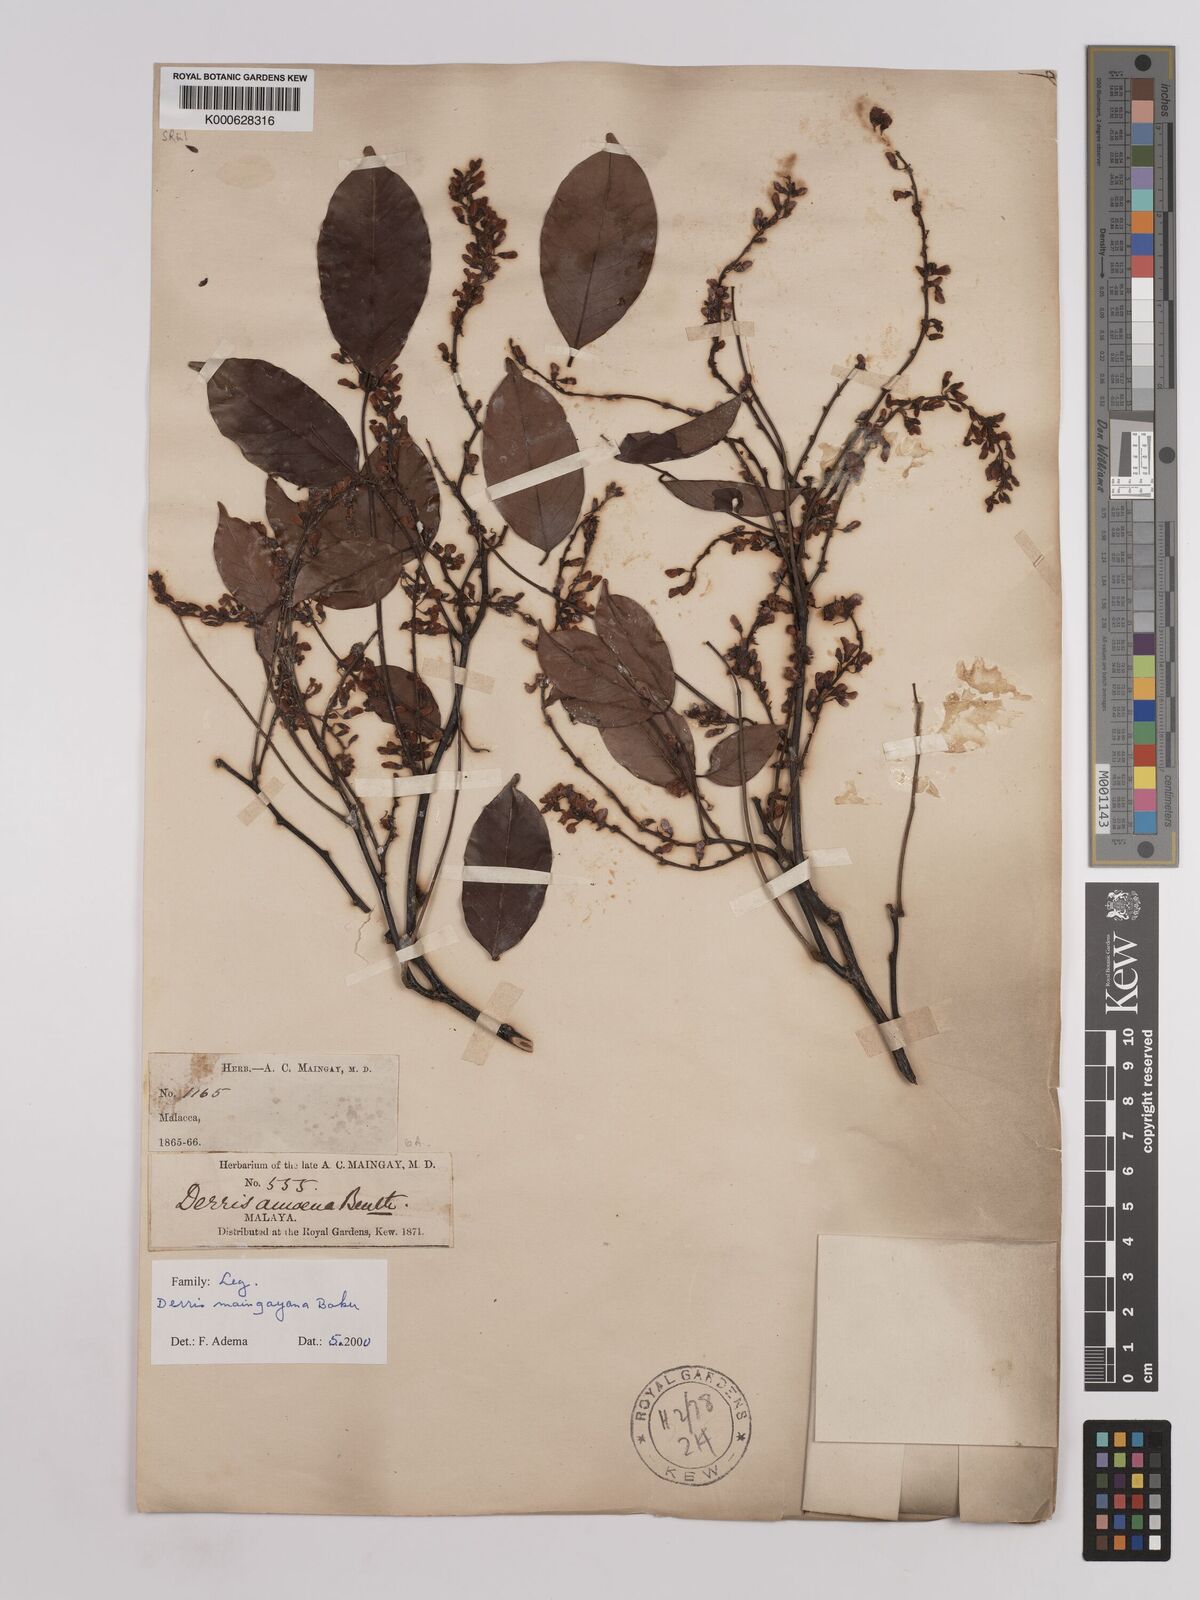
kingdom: Plantae
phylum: Tracheophyta
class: Magnoliopsida
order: Fabales
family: Fabaceae
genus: Derris
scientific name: Derris amoena
